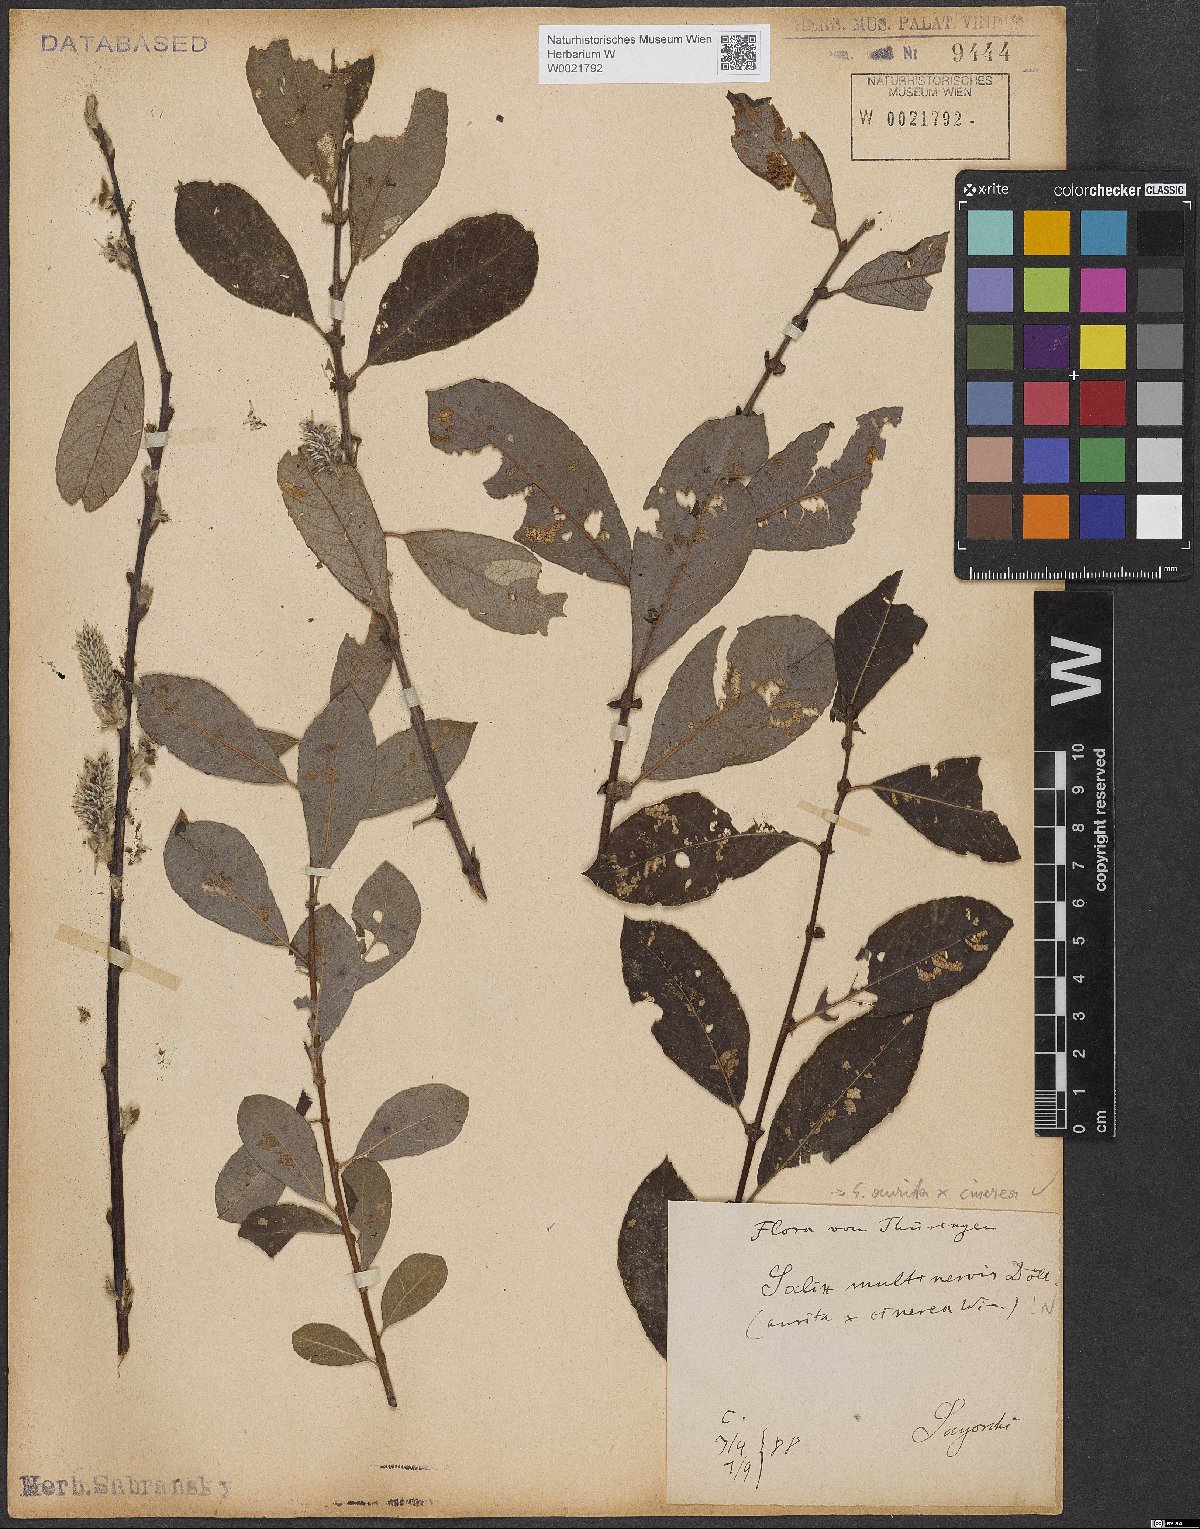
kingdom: Plantae
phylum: Tracheophyta
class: Magnoliopsida
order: Malpighiales
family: Salicaceae
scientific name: Salicaceae
